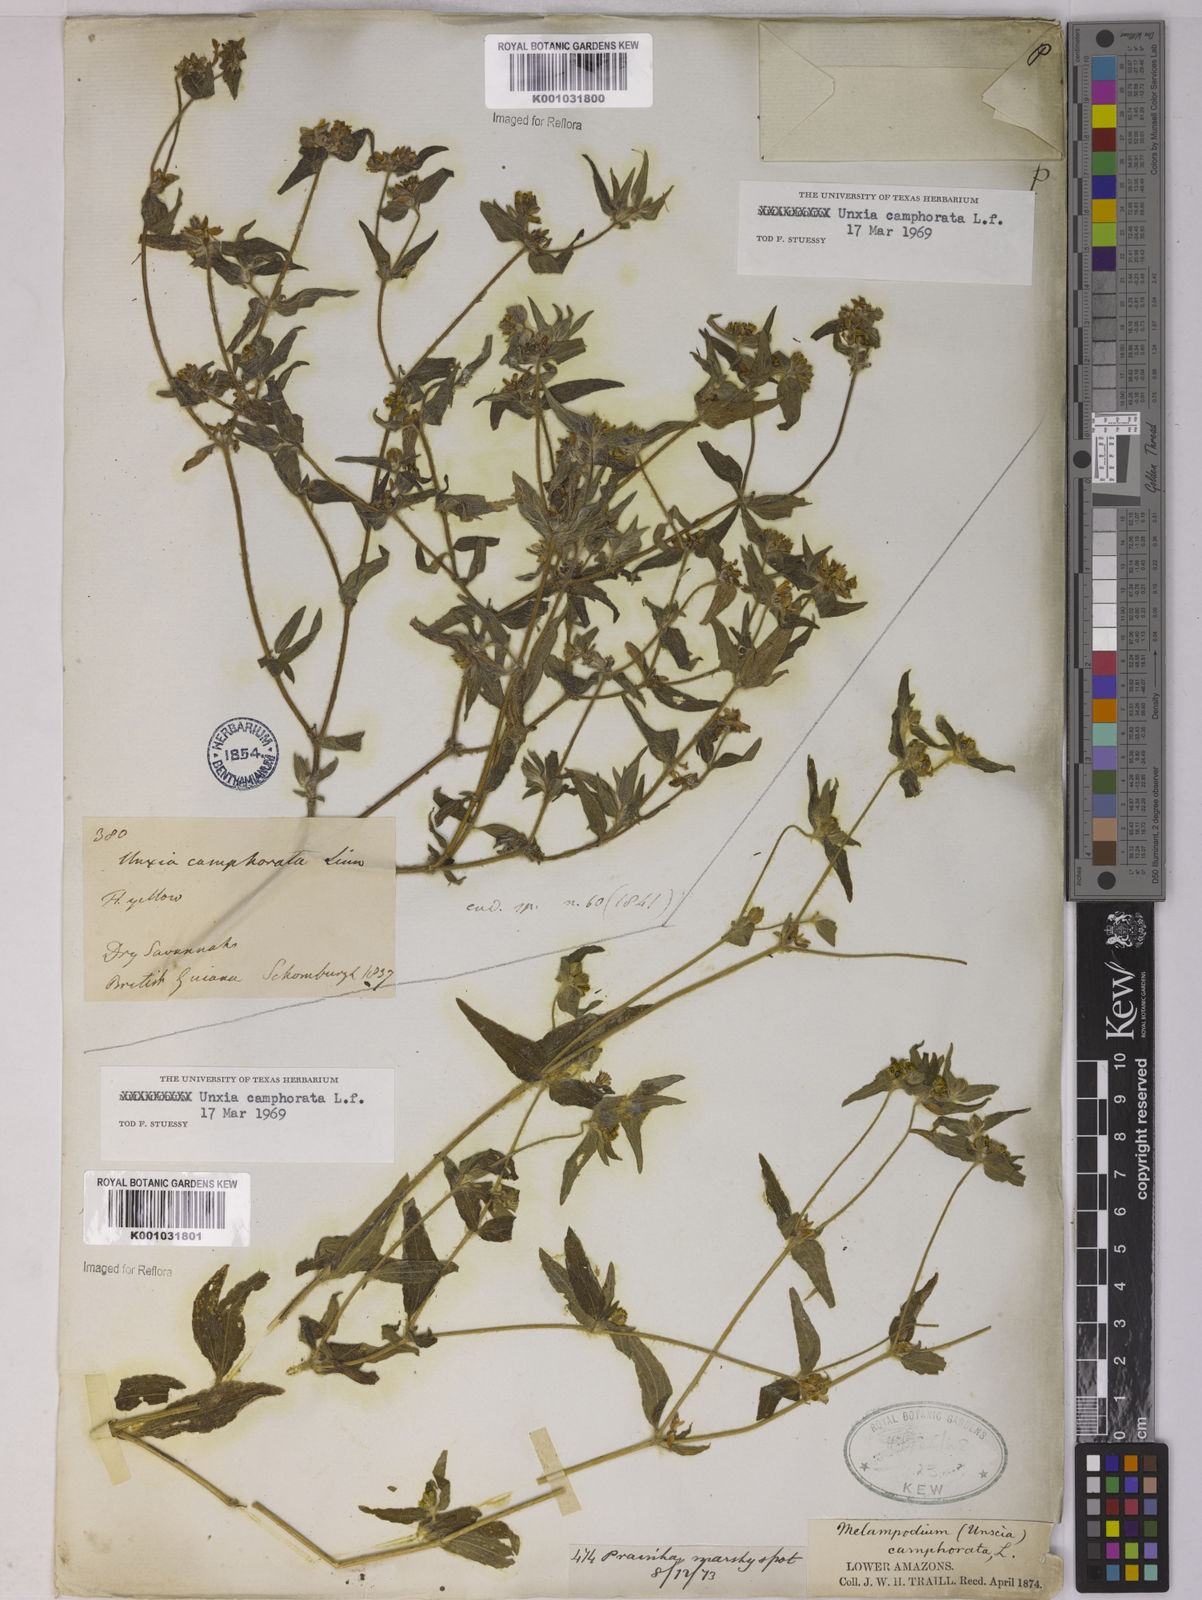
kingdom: Plantae
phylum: Tracheophyta
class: Magnoliopsida
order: Asterales
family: Asteraceae
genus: Unxia
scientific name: Unxia camphorata
